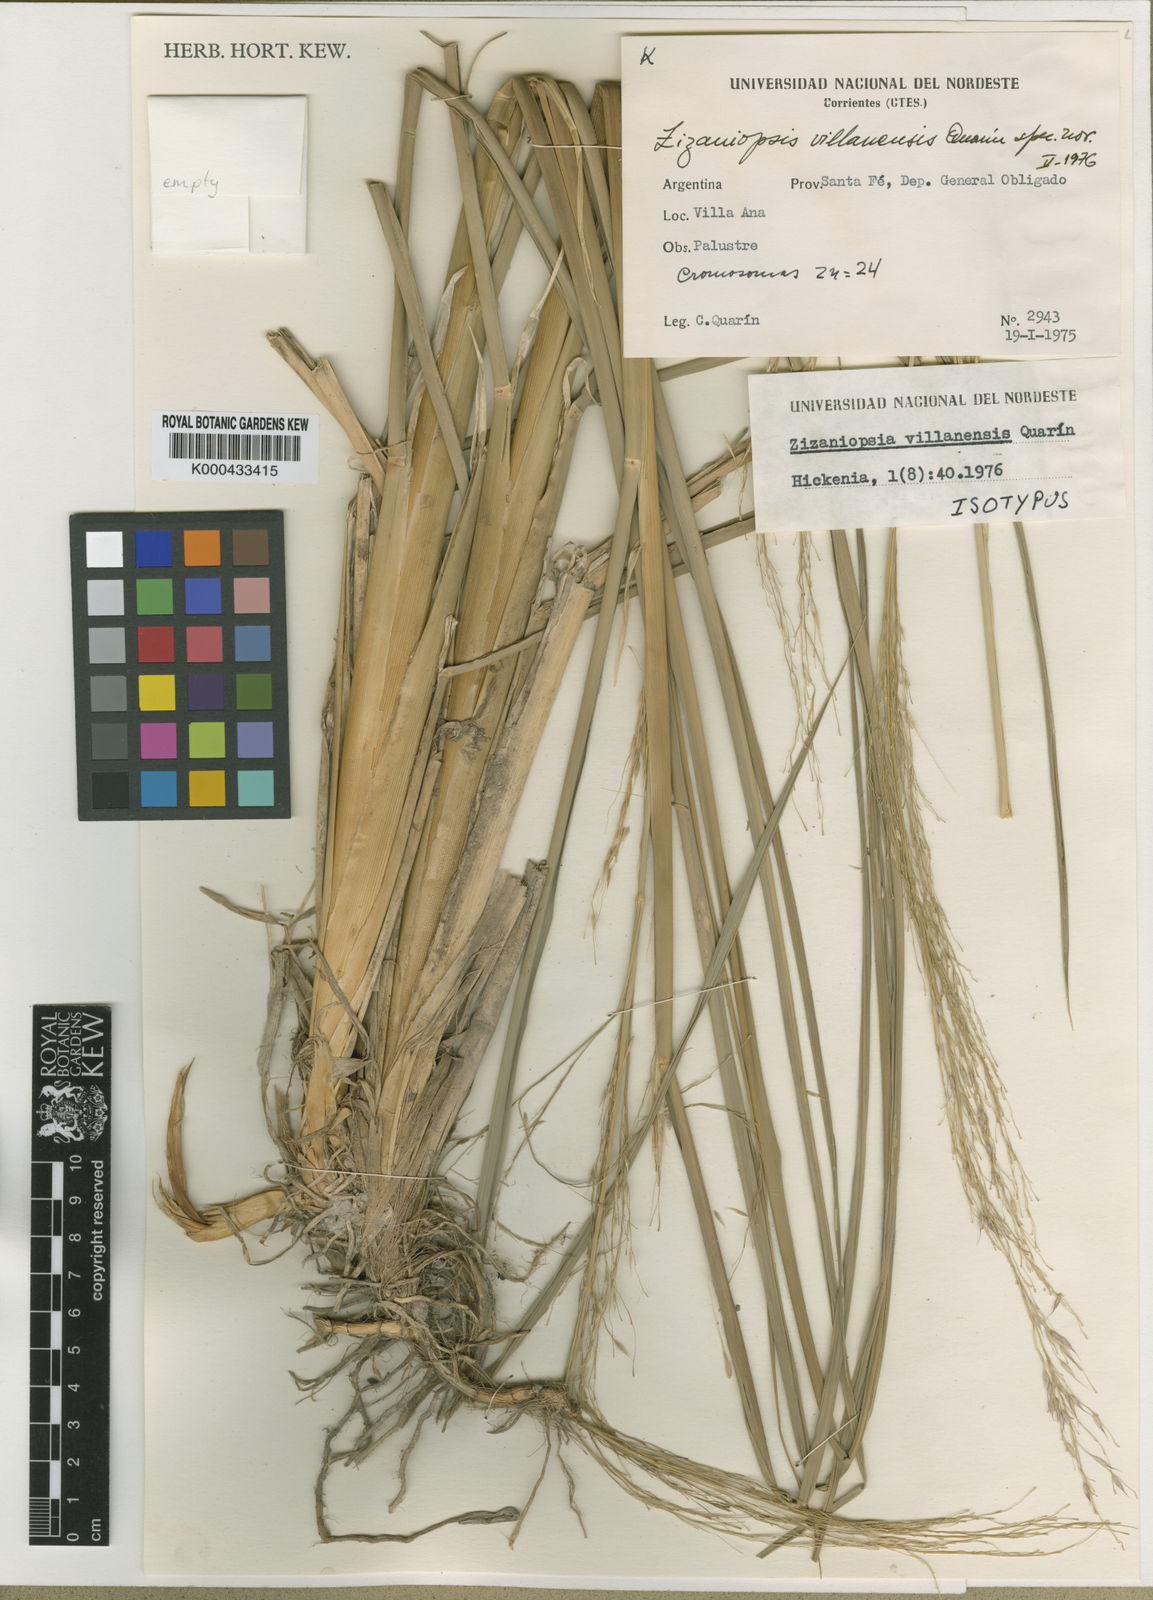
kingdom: Plantae
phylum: Tracheophyta
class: Liliopsida
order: Poales
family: Poaceae
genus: Zizaniopsis
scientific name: Zizaniopsis villanensis
